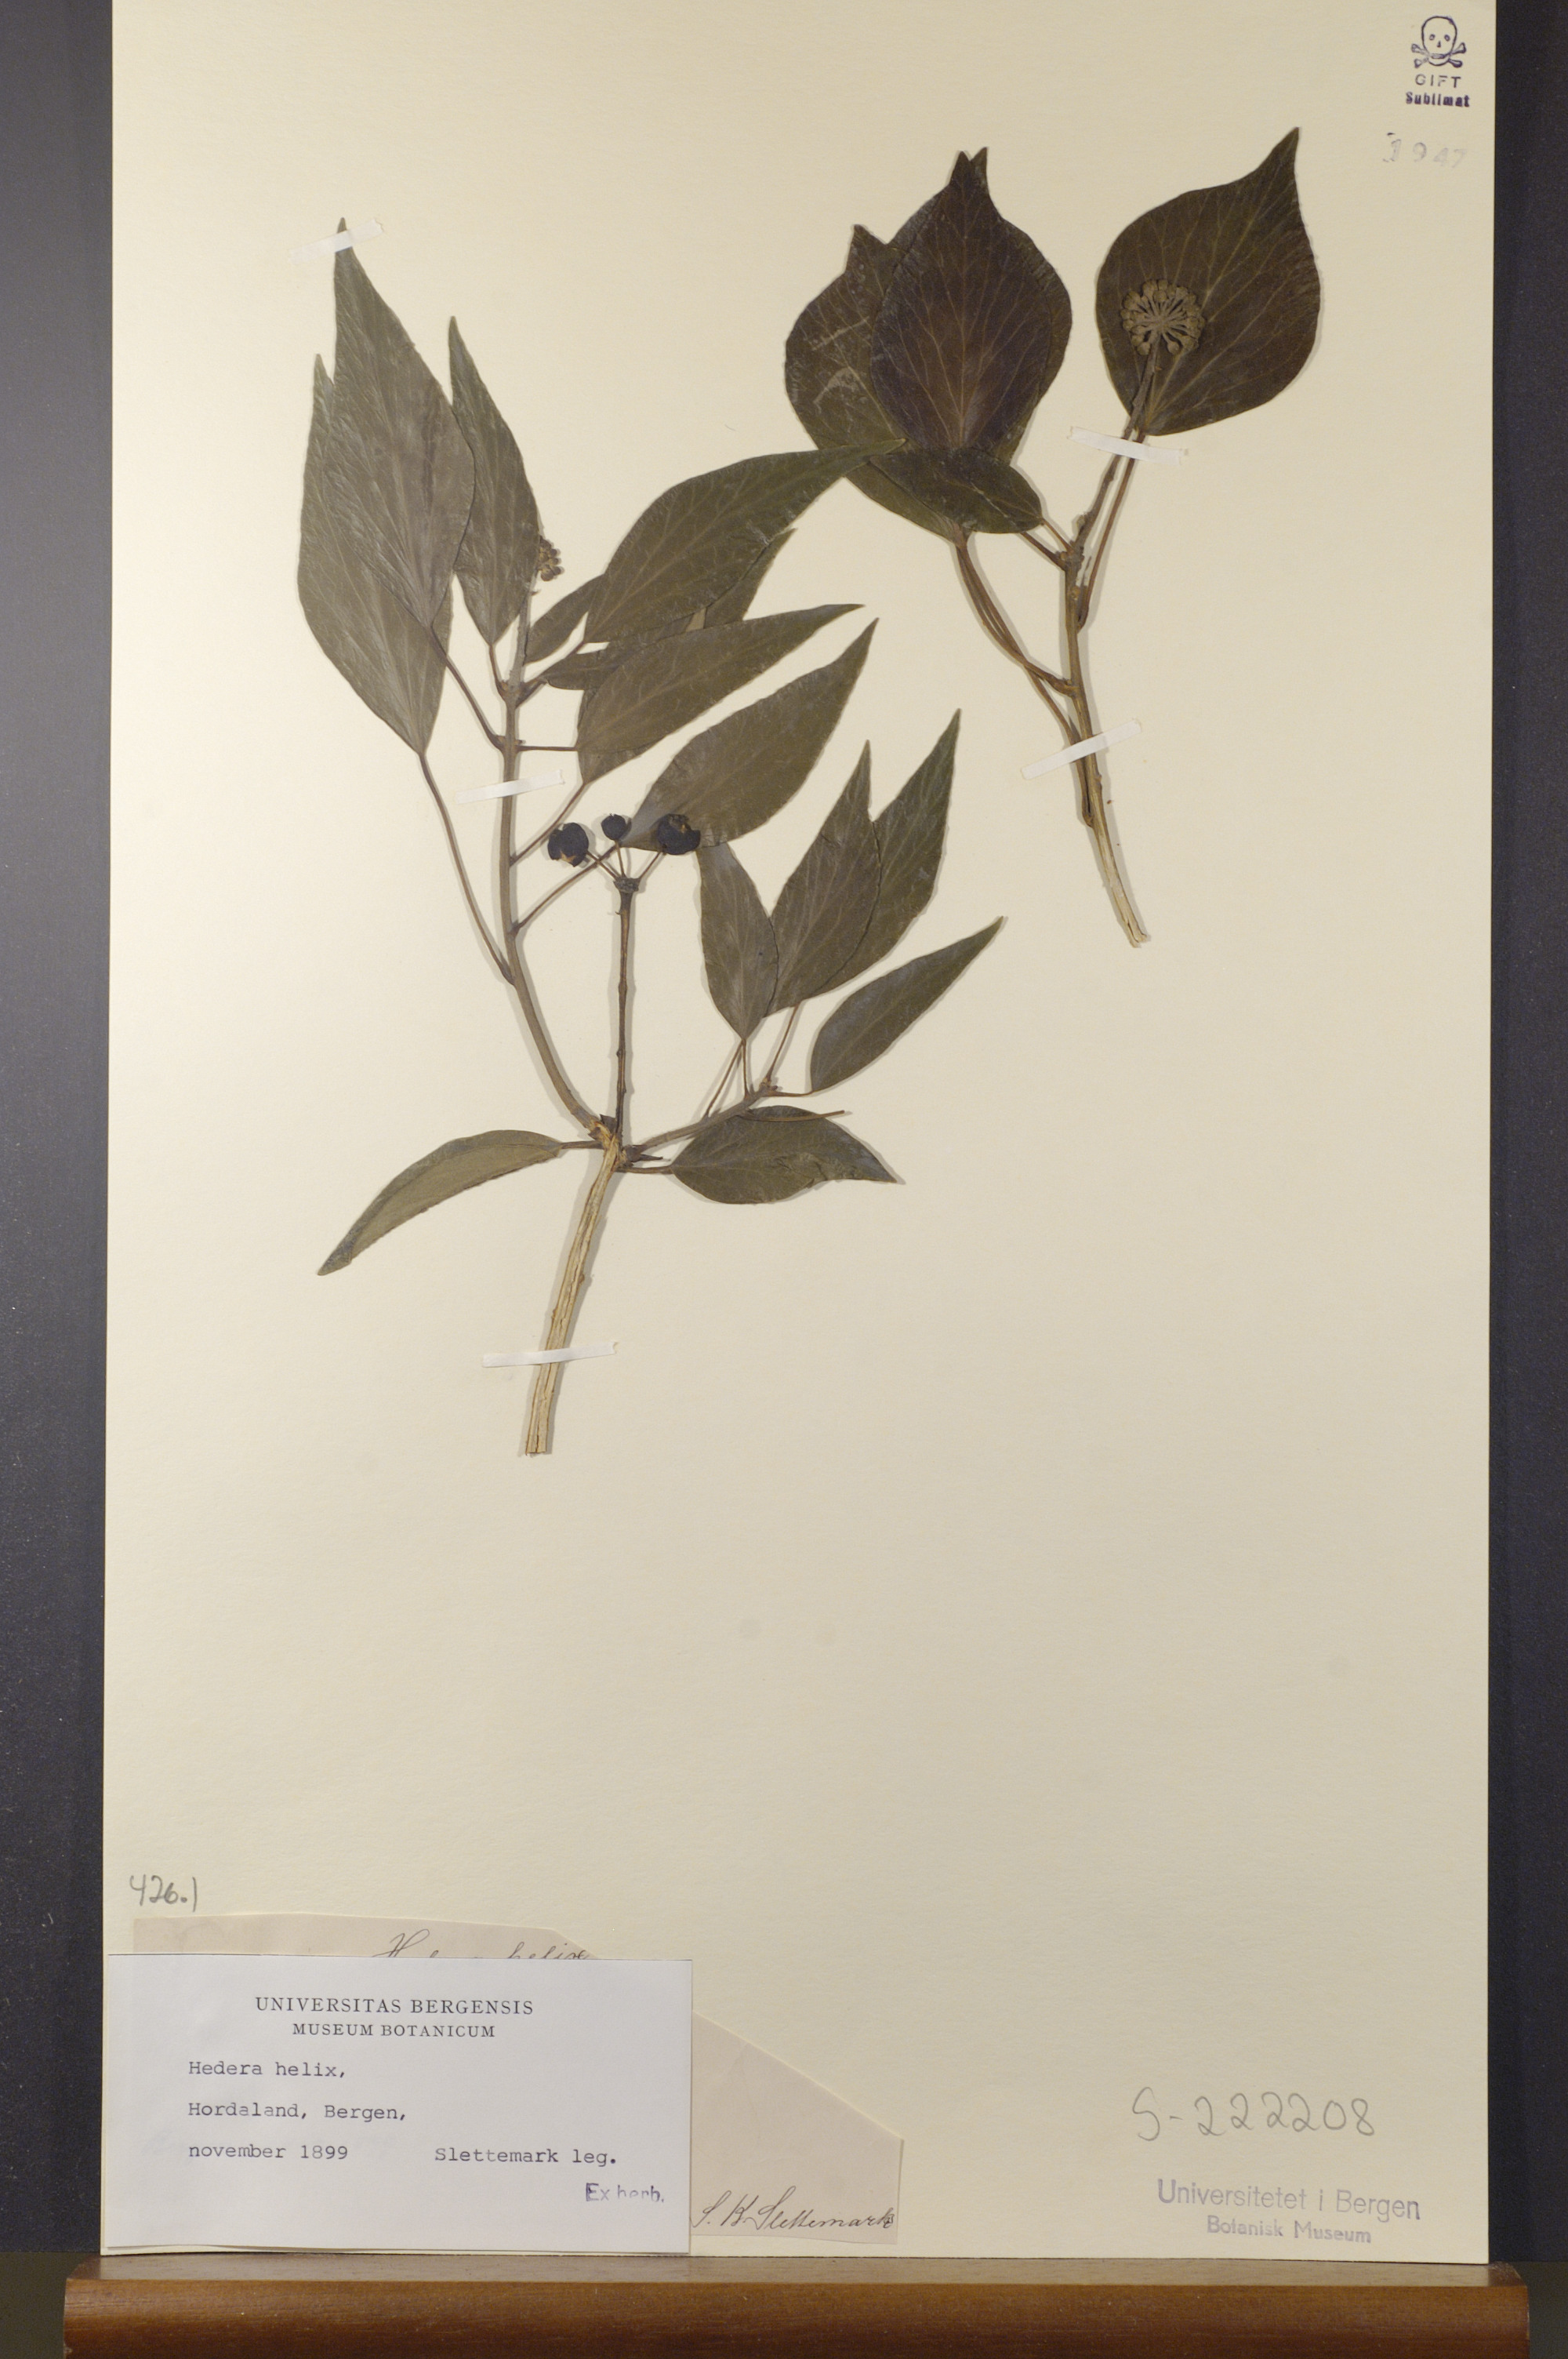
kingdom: Plantae
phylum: Tracheophyta
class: Magnoliopsida
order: Apiales
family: Araliaceae
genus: Hedera
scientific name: Hedera helix
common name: Ivy
